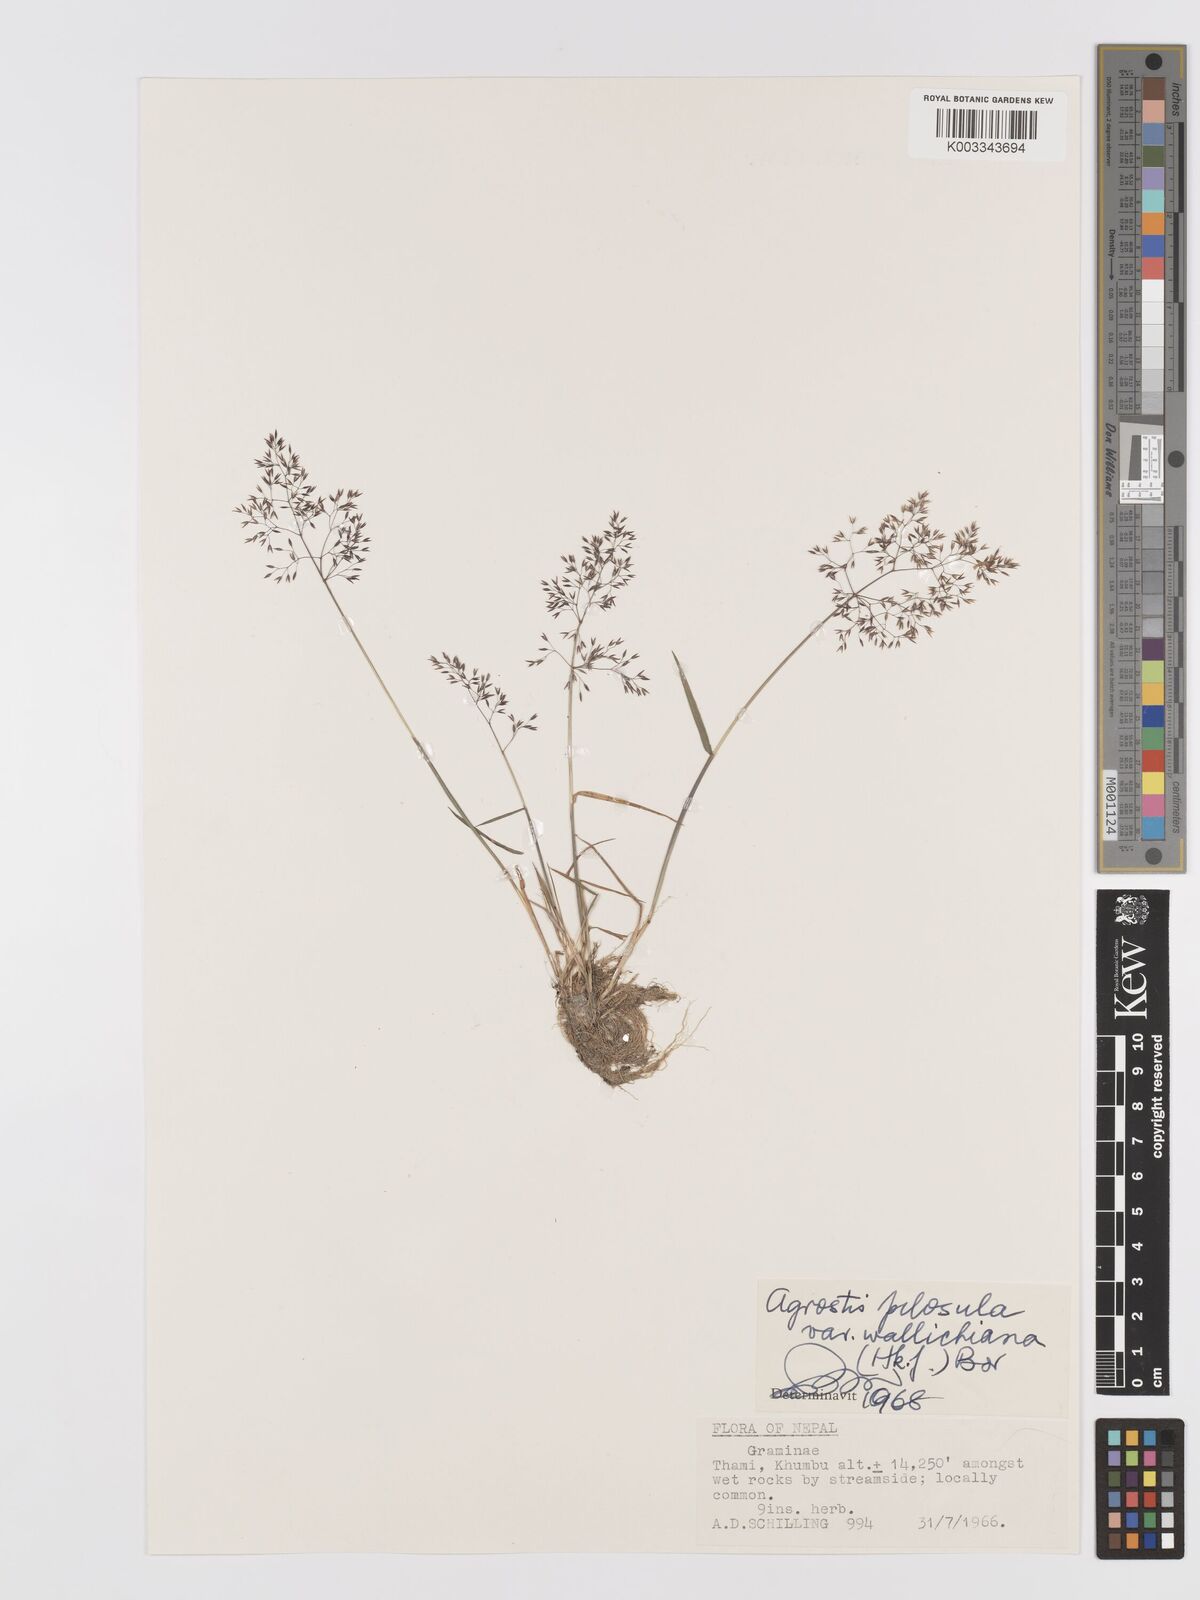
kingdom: Plantae
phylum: Tracheophyta
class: Liliopsida
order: Poales
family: Poaceae
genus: Agrostis
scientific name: Agrostis pilosula
